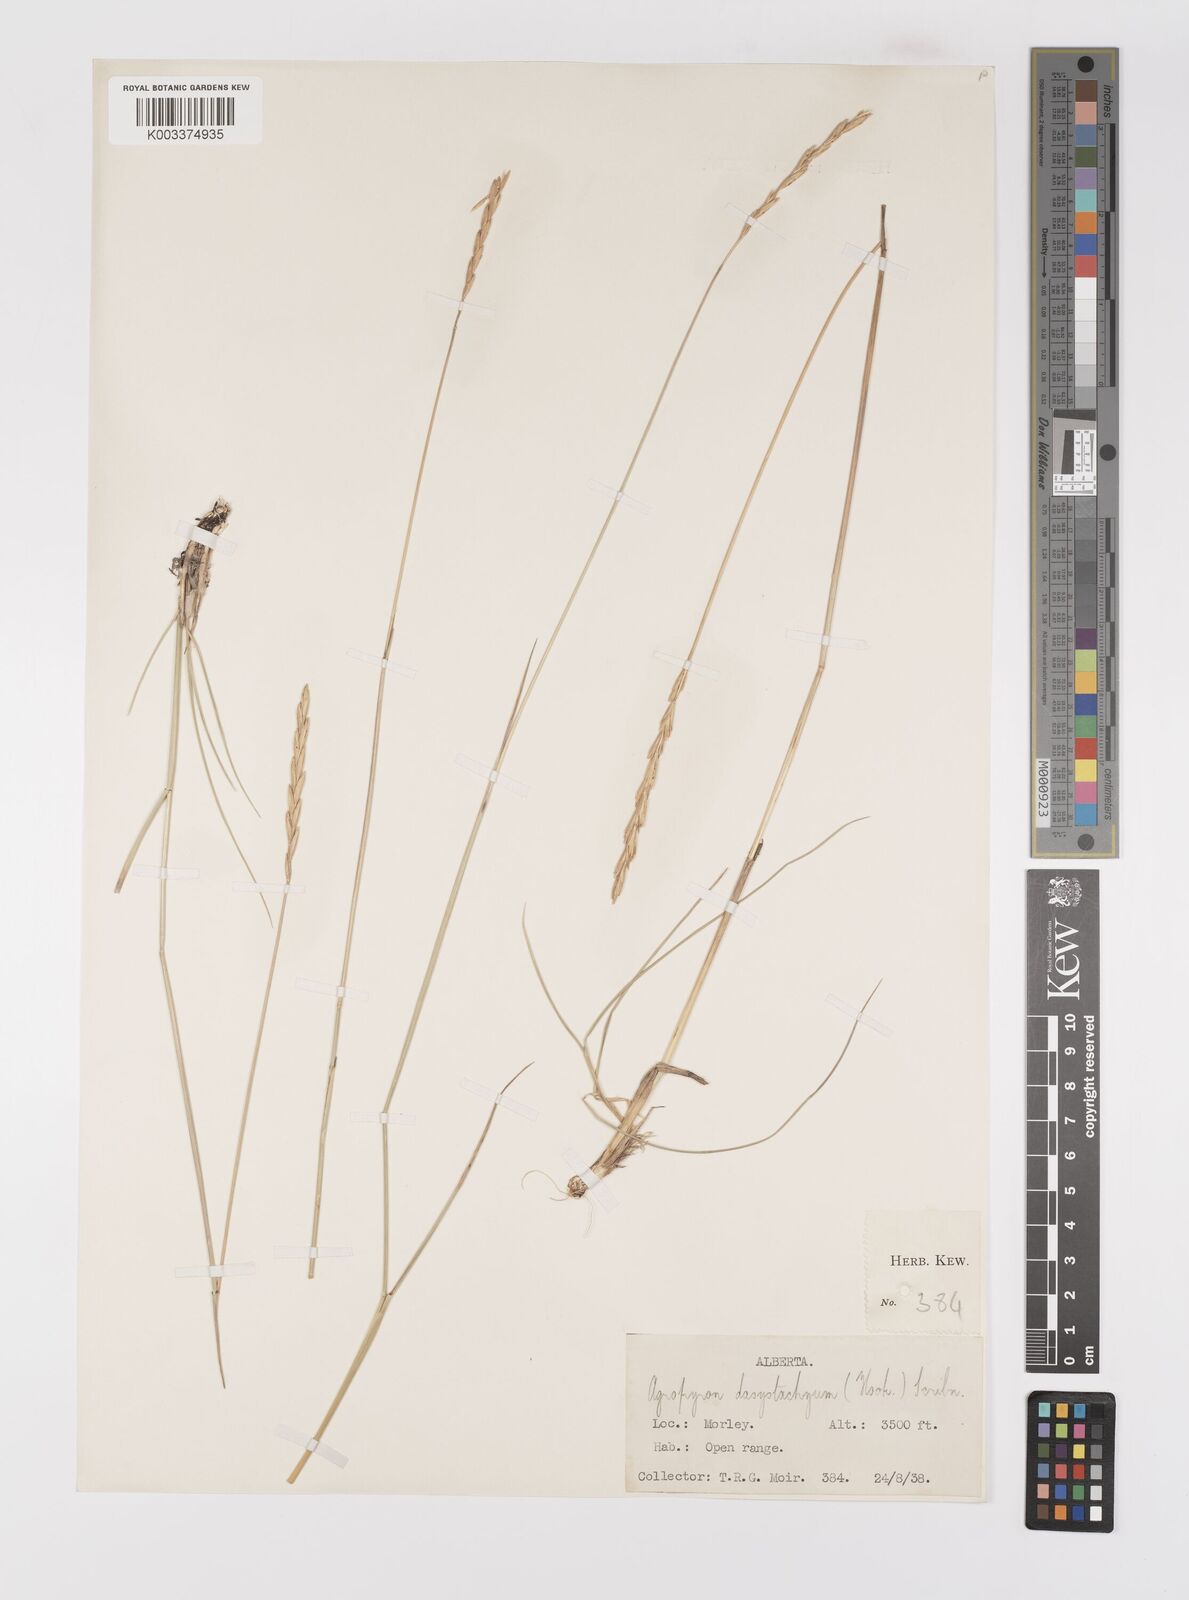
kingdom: Plantae
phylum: Tracheophyta
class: Liliopsida
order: Poales
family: Poaceae
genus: Elymus
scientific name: Elymus lanceolatus
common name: Thick-spike wheatgrass
